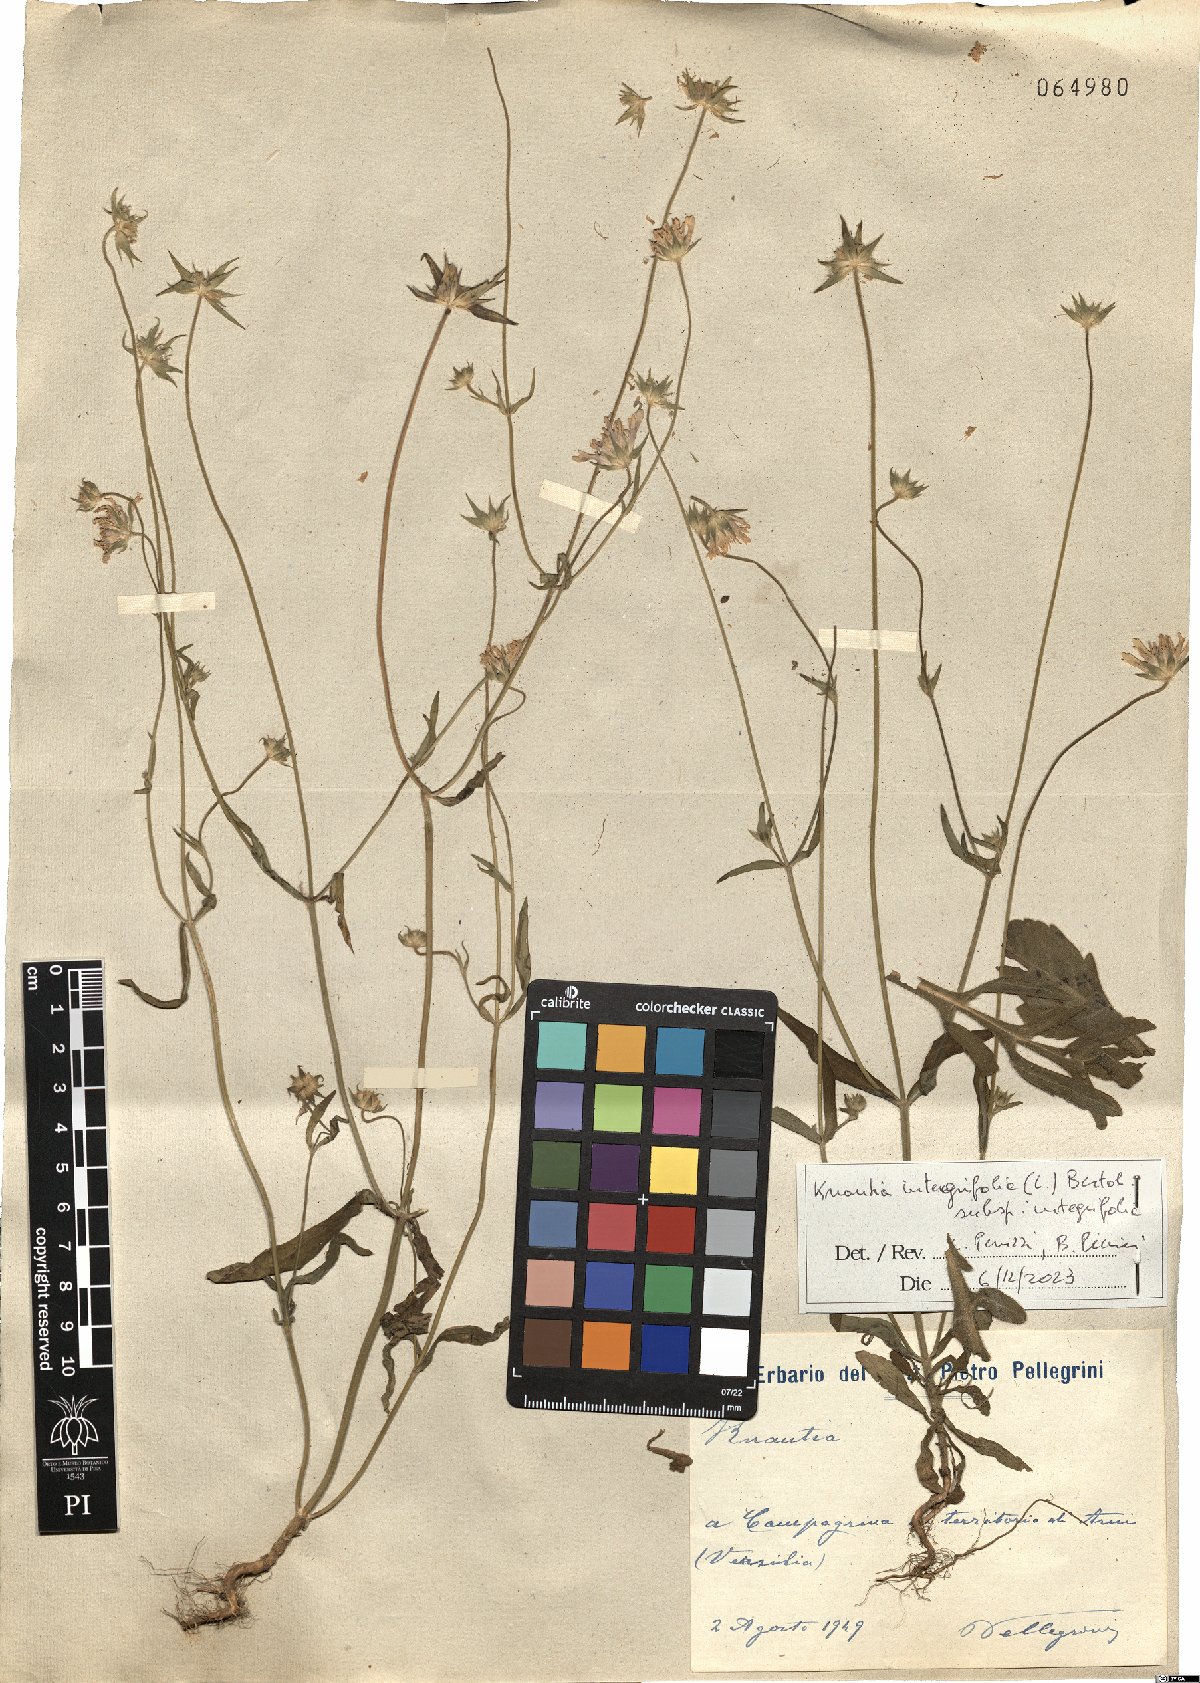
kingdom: Plantae
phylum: Tracheophyta
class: Magnoliopsida
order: Dipsacales
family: Caprifoliaceae
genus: Knautia
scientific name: Knautia integrifolia
